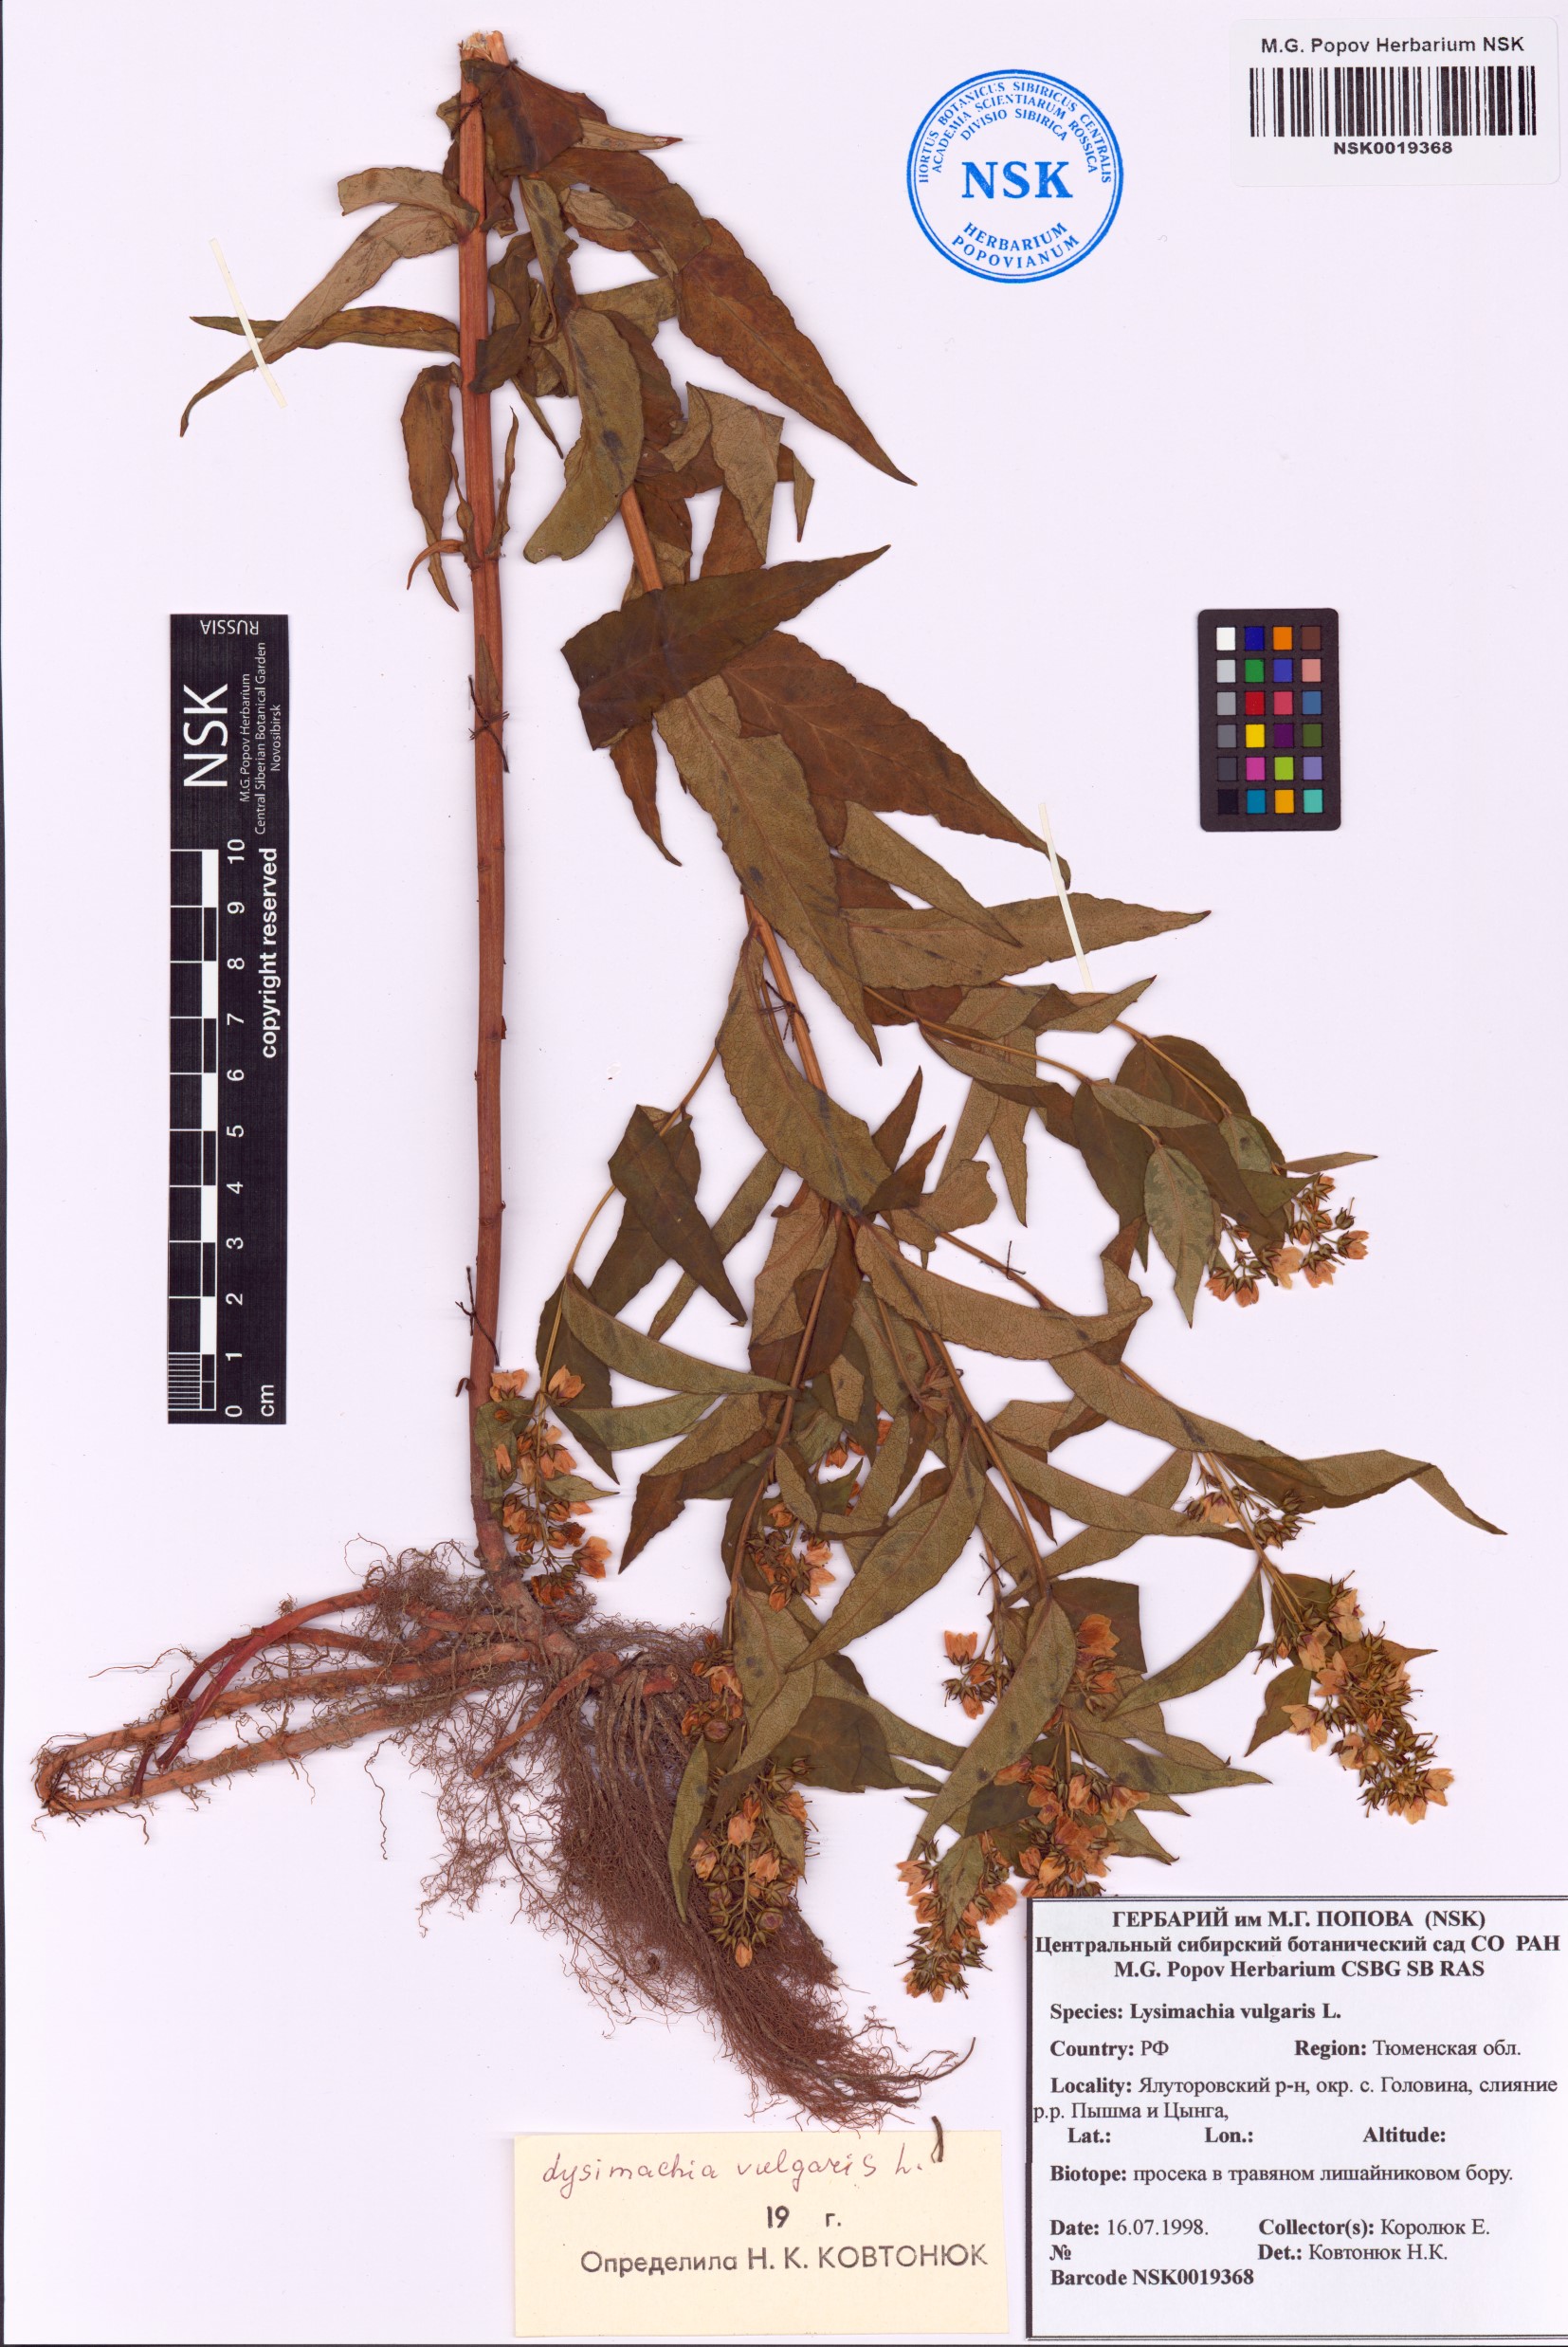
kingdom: Plantae
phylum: Tracheophyta
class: Magnoliopsida
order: Ericales
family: Primulaceae
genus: Lysimachia
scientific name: Lysimachia vulgaris
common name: Yellow loosestrife
